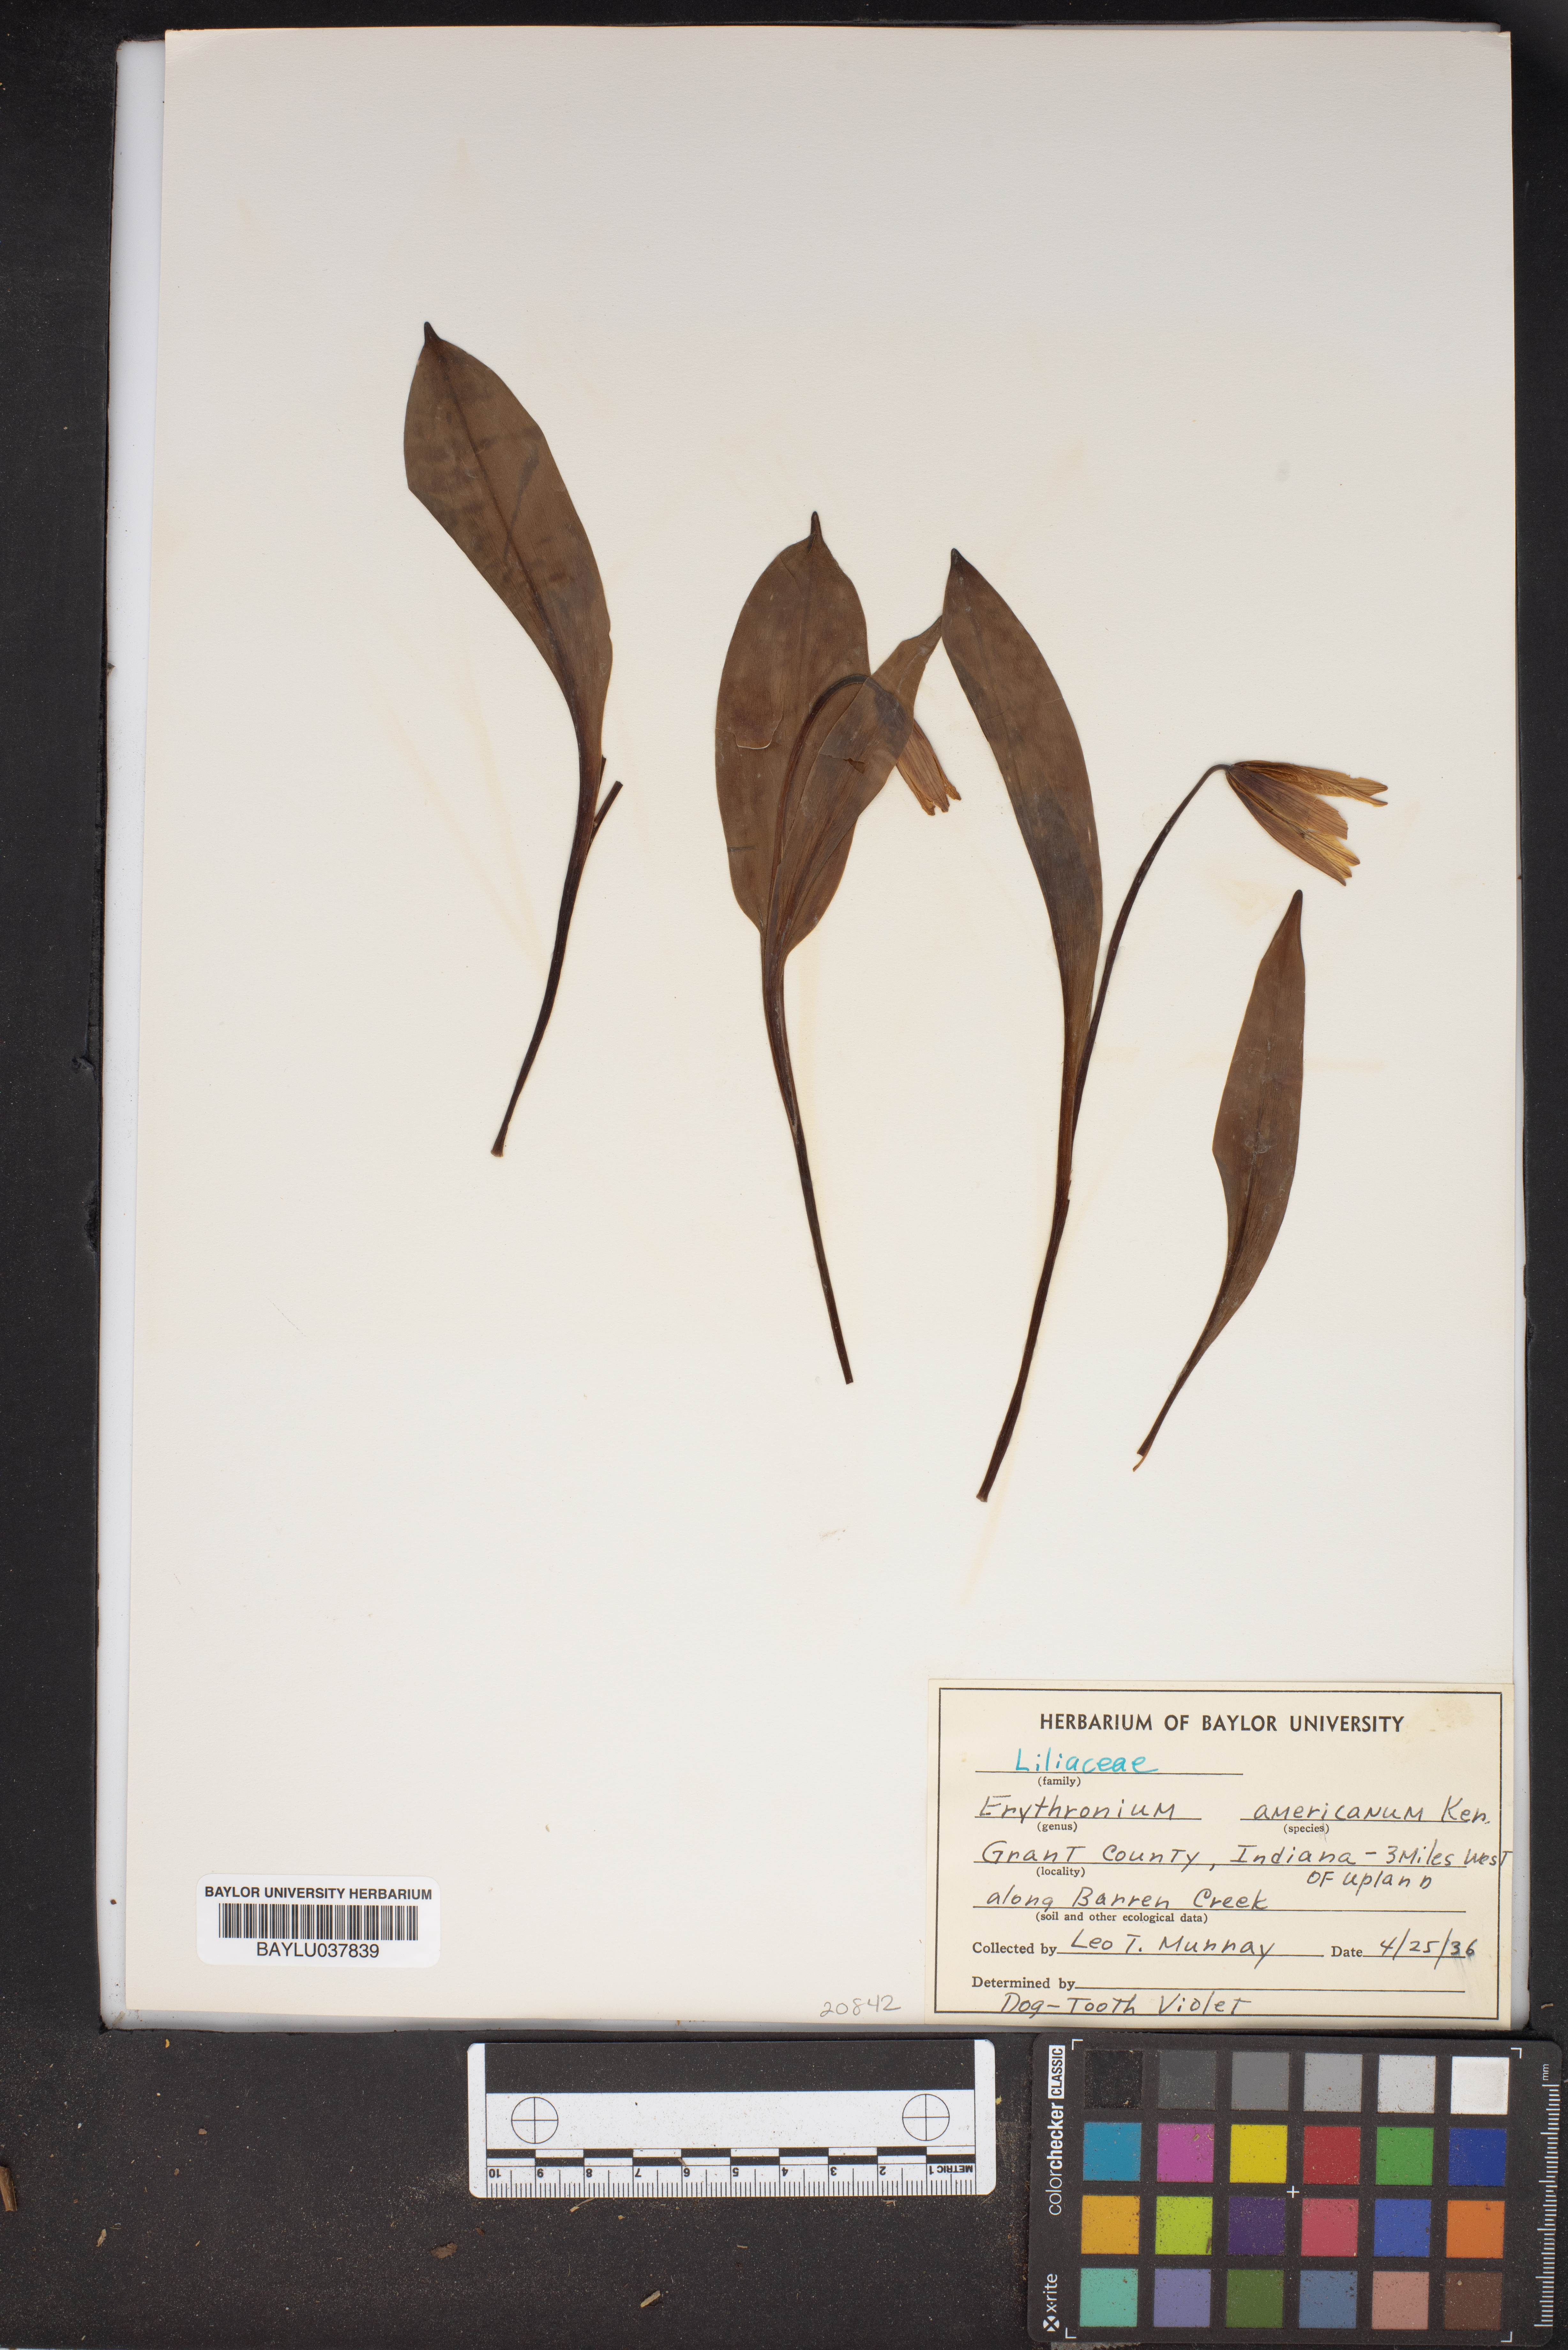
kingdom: Plantae
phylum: Tracheophyta
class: Liliopsida
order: Liliales
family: Liliaceae
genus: Erythronium
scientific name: Erythronium americanum
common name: Yellow adder's-tongue
